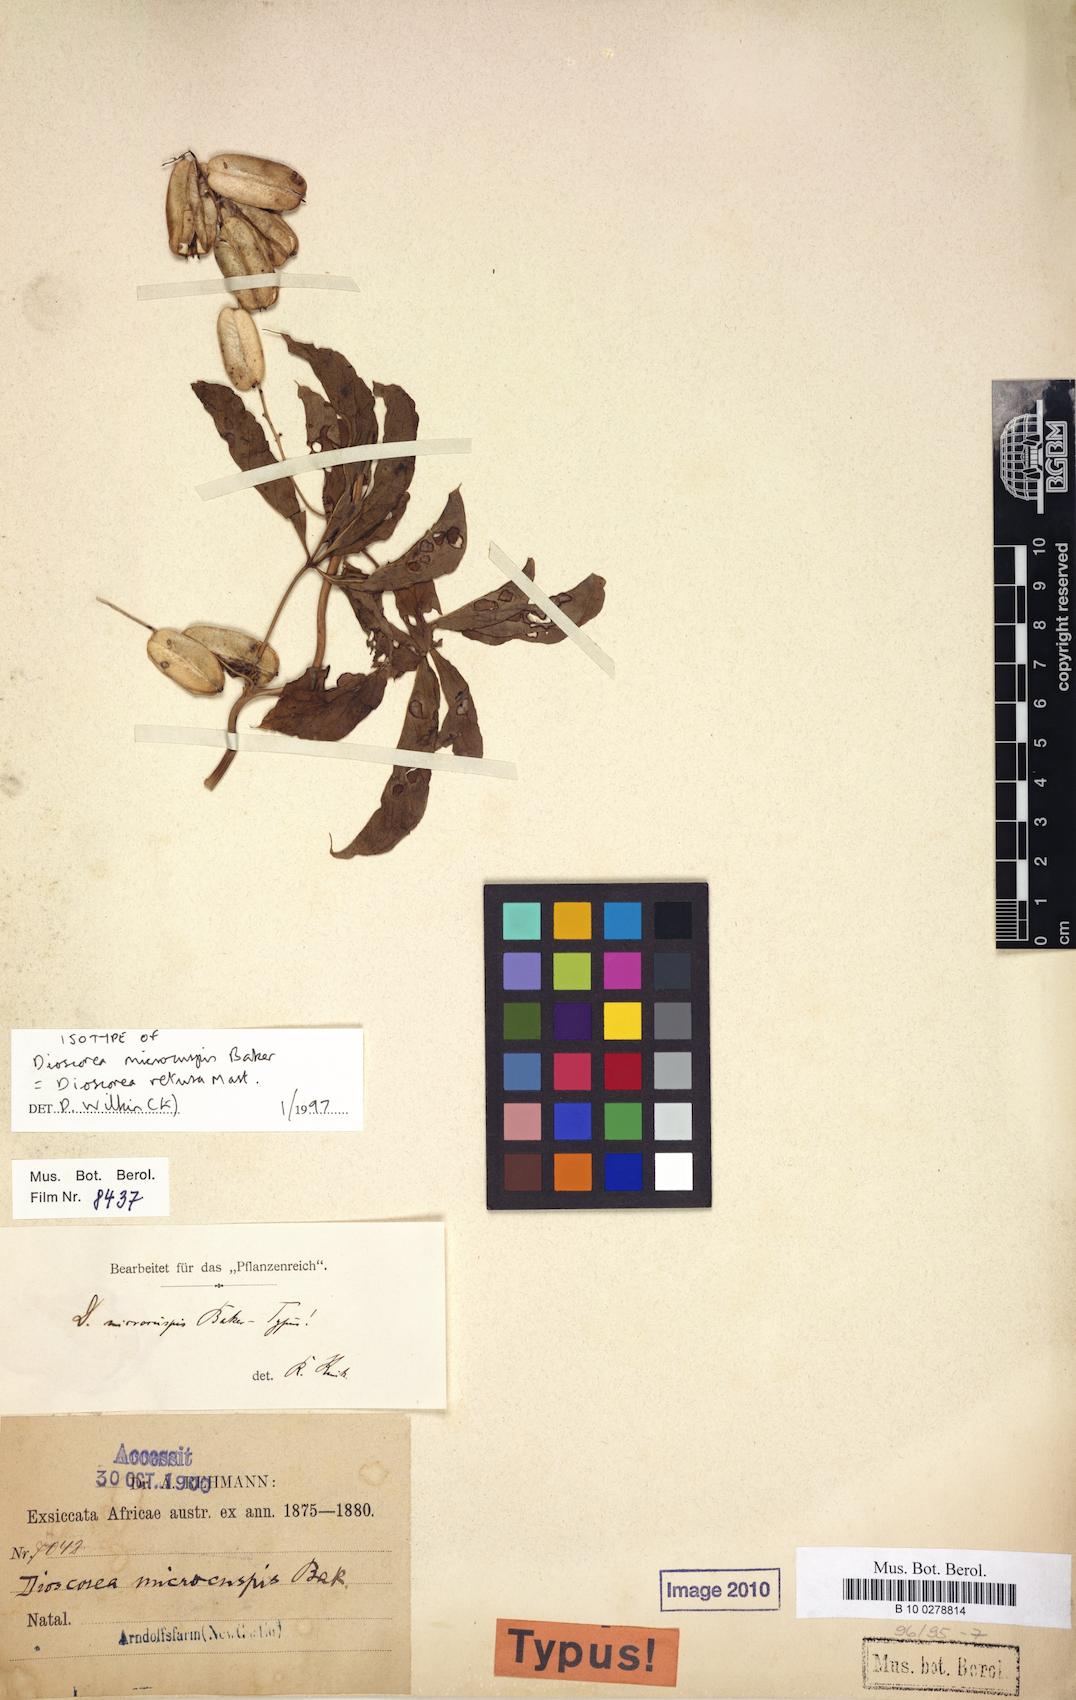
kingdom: Plantae
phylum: Tracheophyta
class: Liliopsida
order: Dioscoreales
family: Dioscoreaceae
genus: Dioscorea
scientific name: Dioscorea retusa
